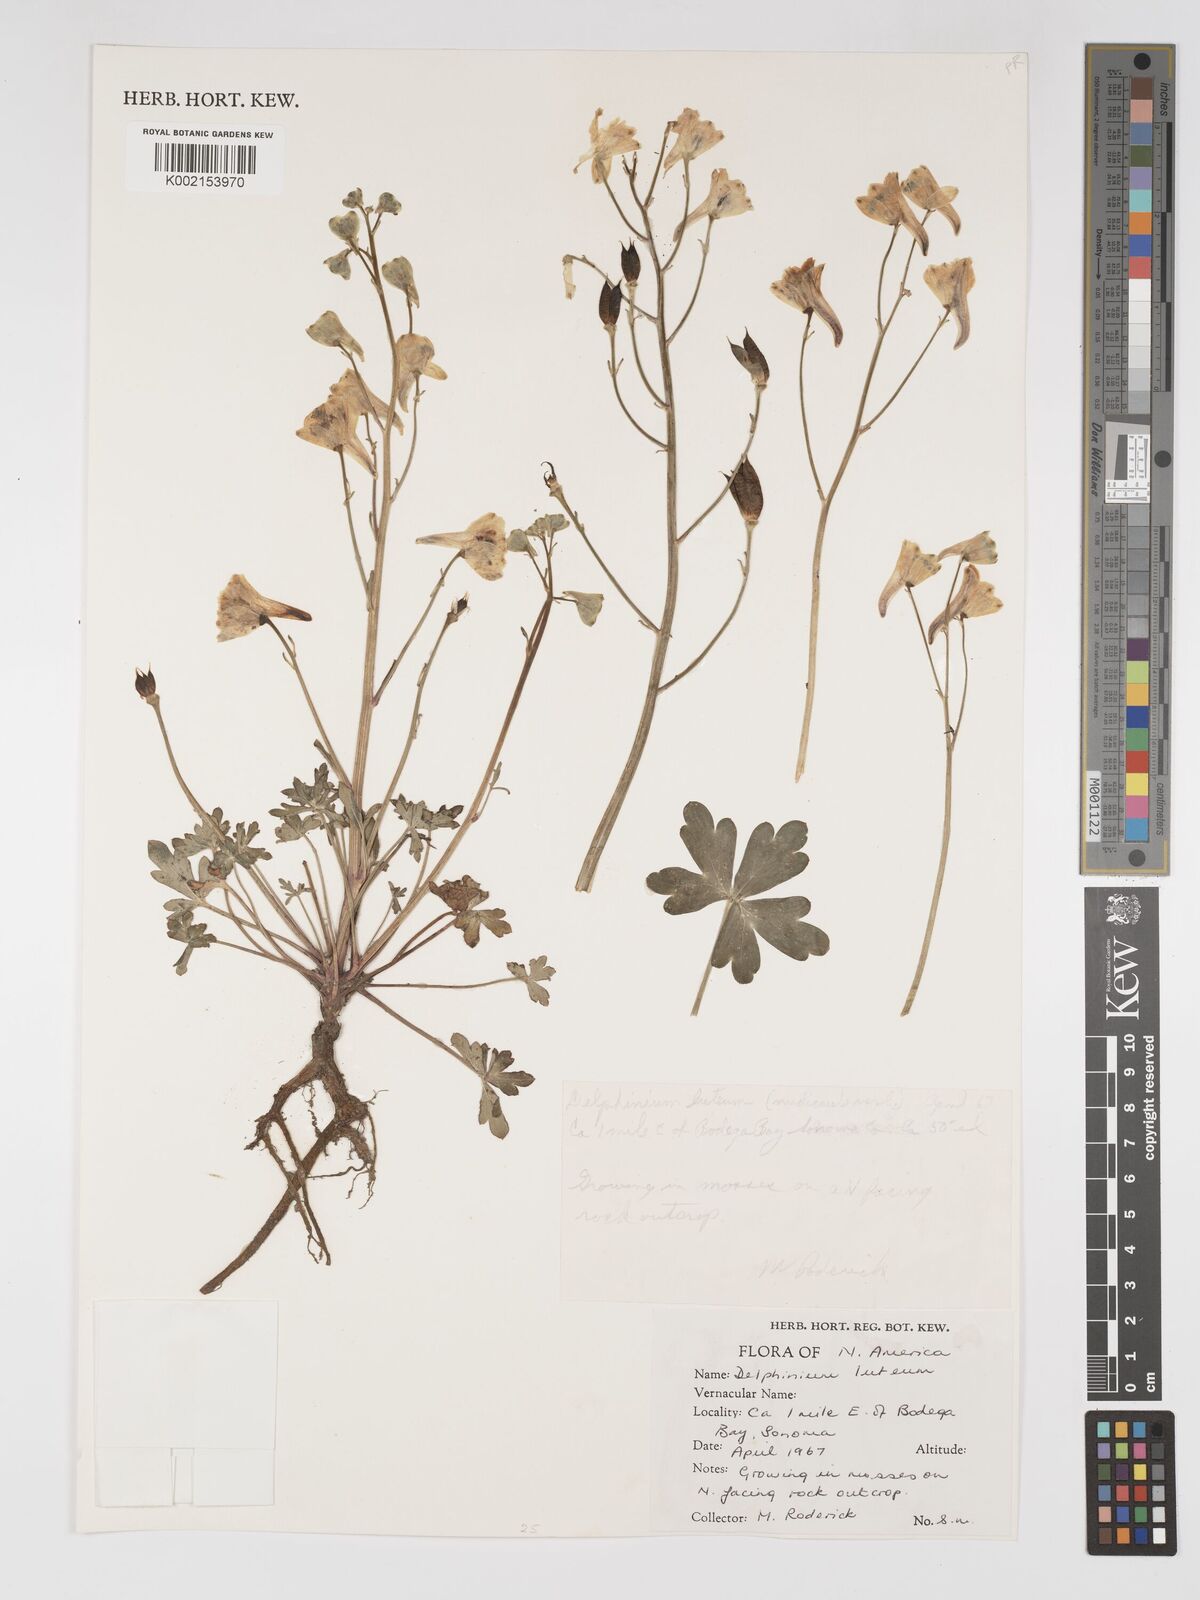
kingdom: Plantae
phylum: Tracheophyta
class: Magnoliopsida
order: Ranunculales
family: Ranunculaceae
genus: Delphinium
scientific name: Delphinium luteum
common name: Yellow larkspur
